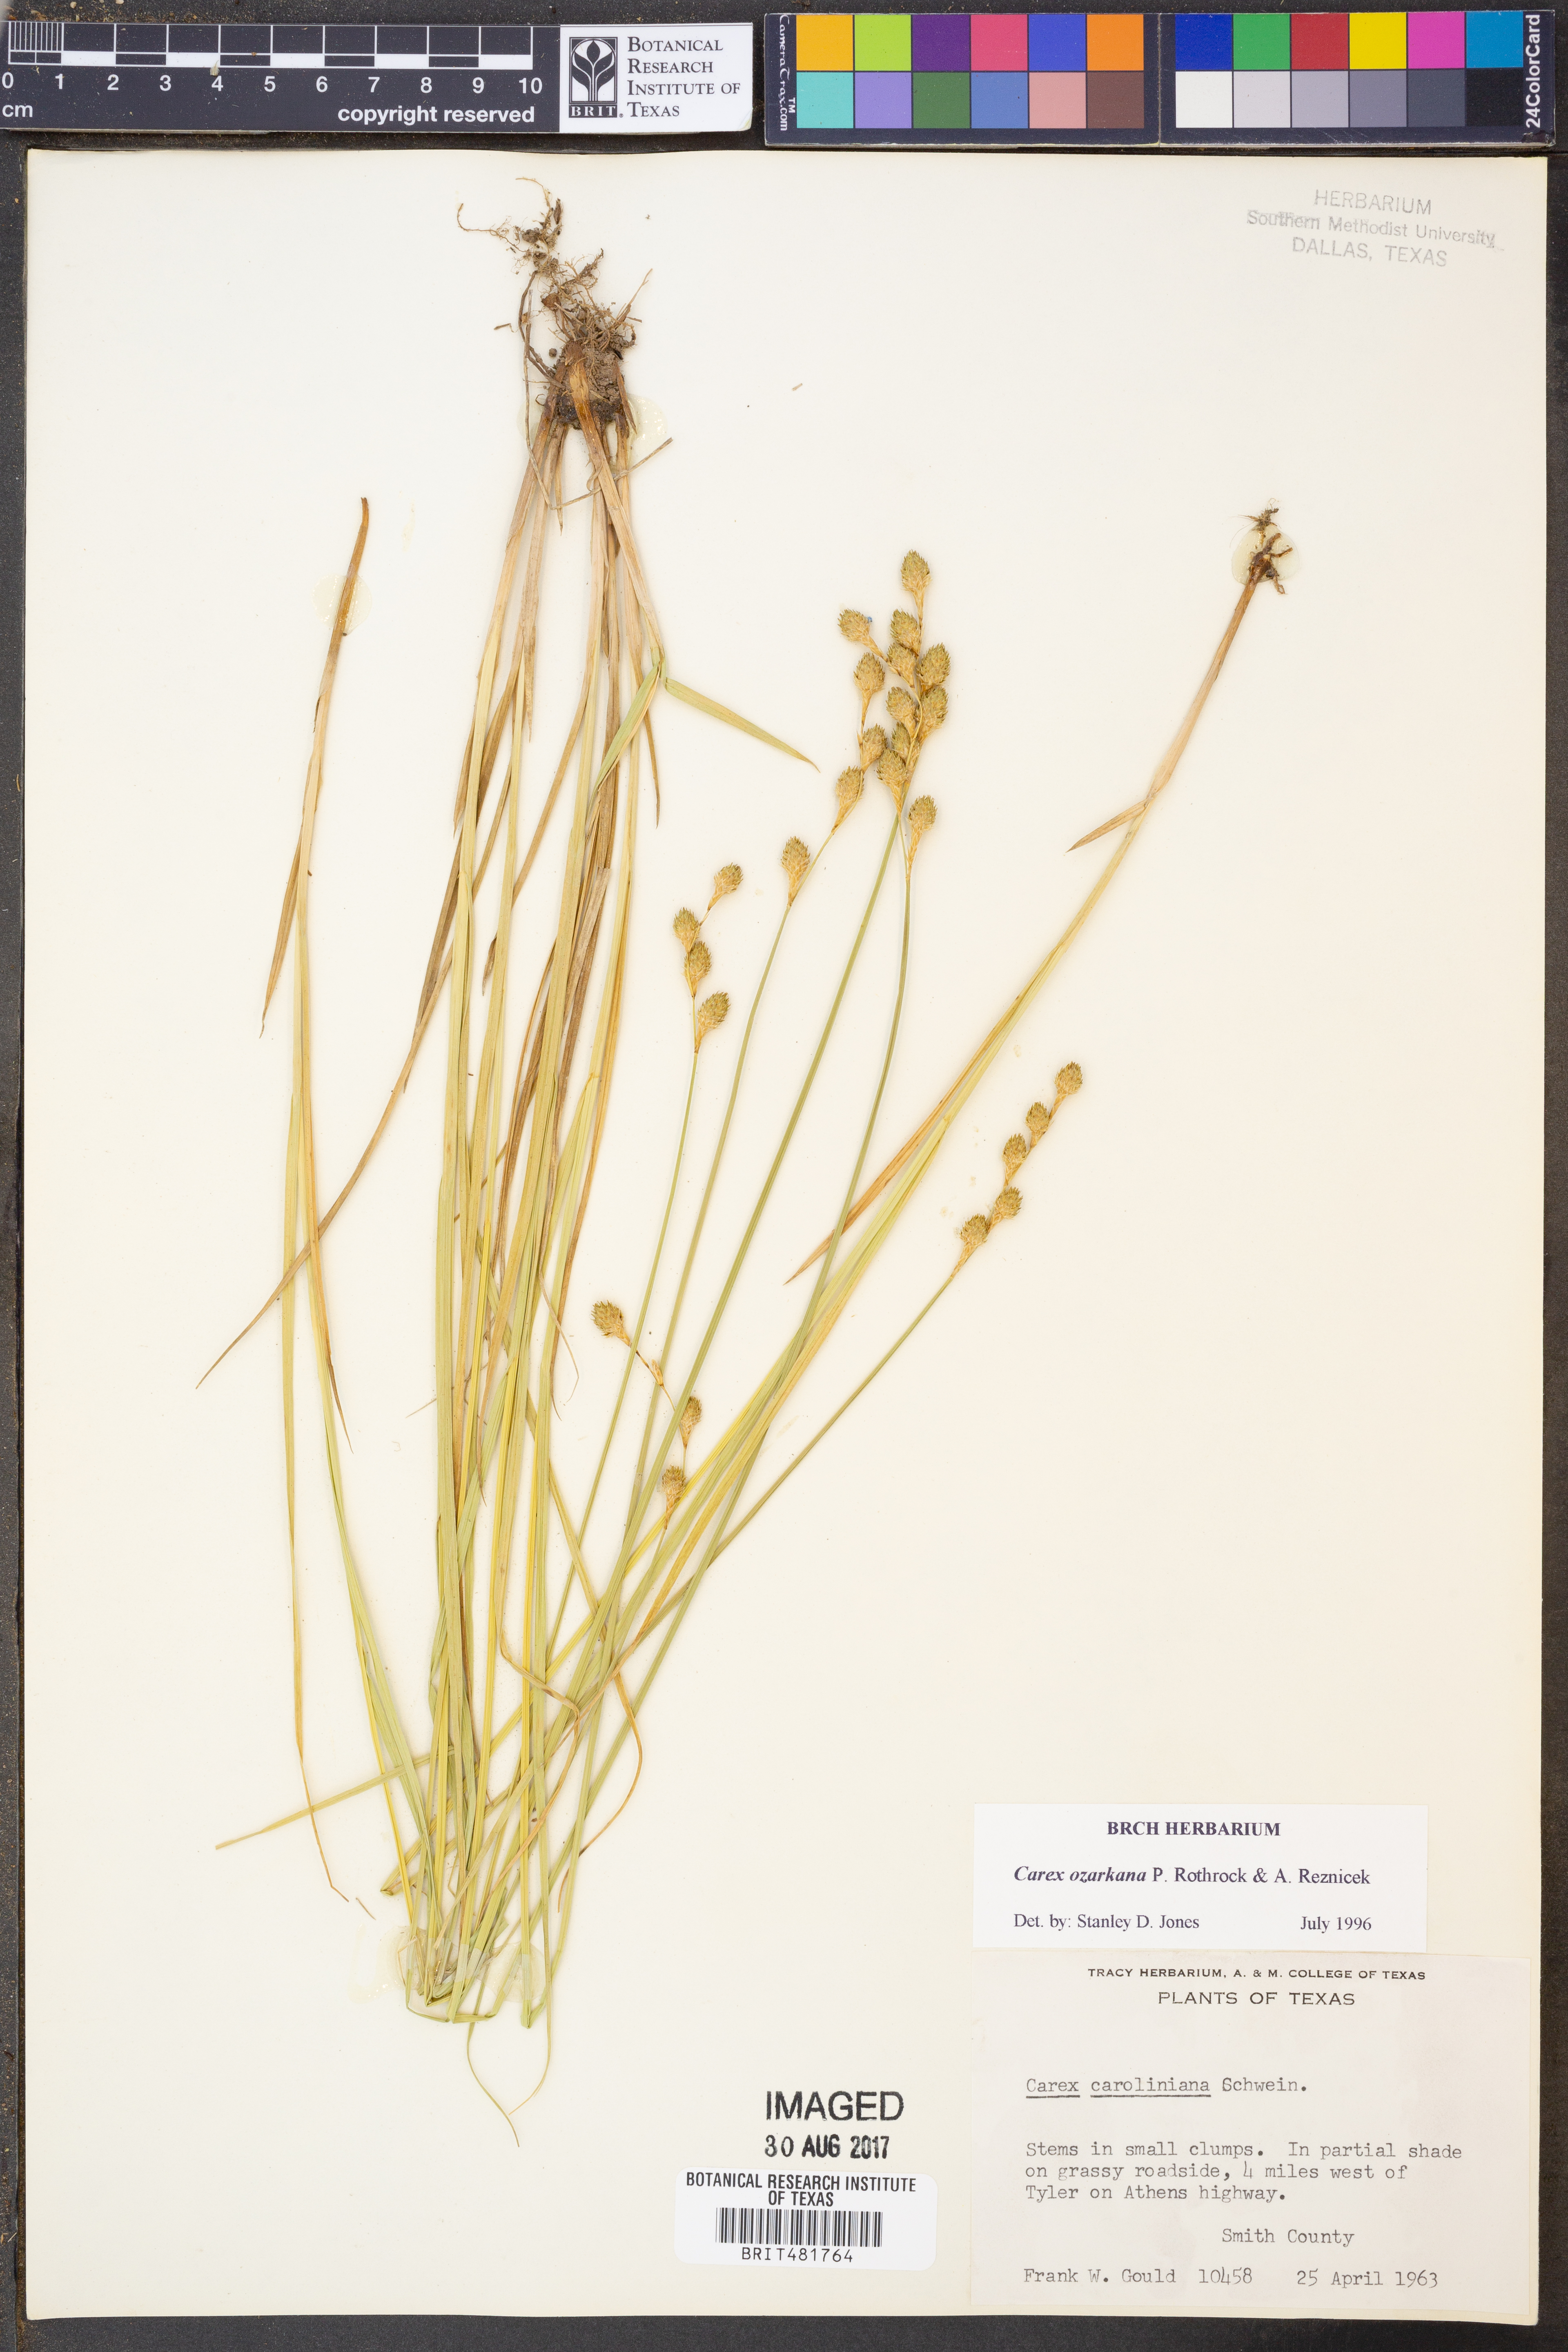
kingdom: Plantae
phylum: Tracheophyta
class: Liliopsida
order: Poales
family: Cyperaceae
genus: Carex
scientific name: Carex ozarkana
